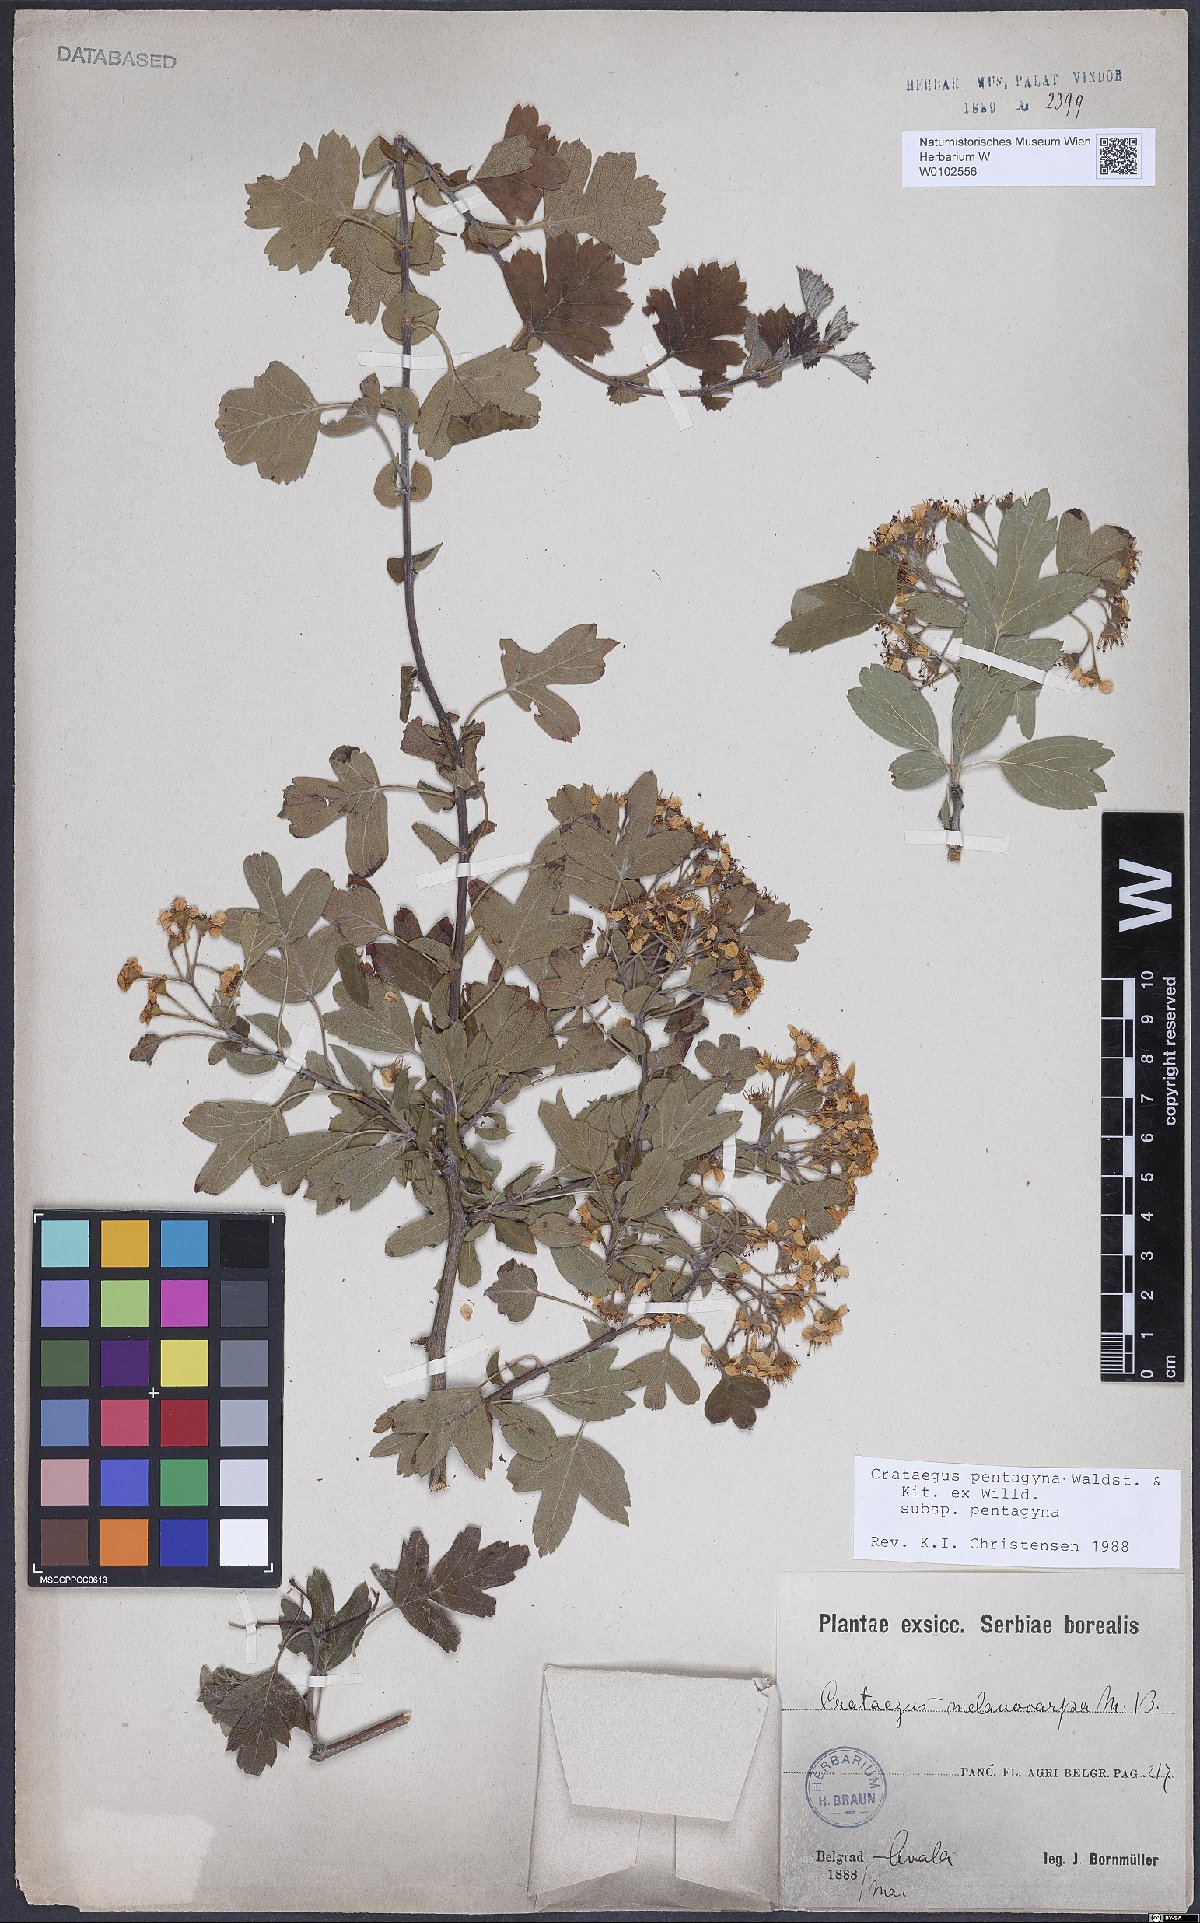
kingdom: Plantae
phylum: Tracheophyta
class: Magnoliopsida
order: Rosales
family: Rosaceae
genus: Crataegus
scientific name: Crataegus pentagyna
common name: Small-flowered black hawthorn
